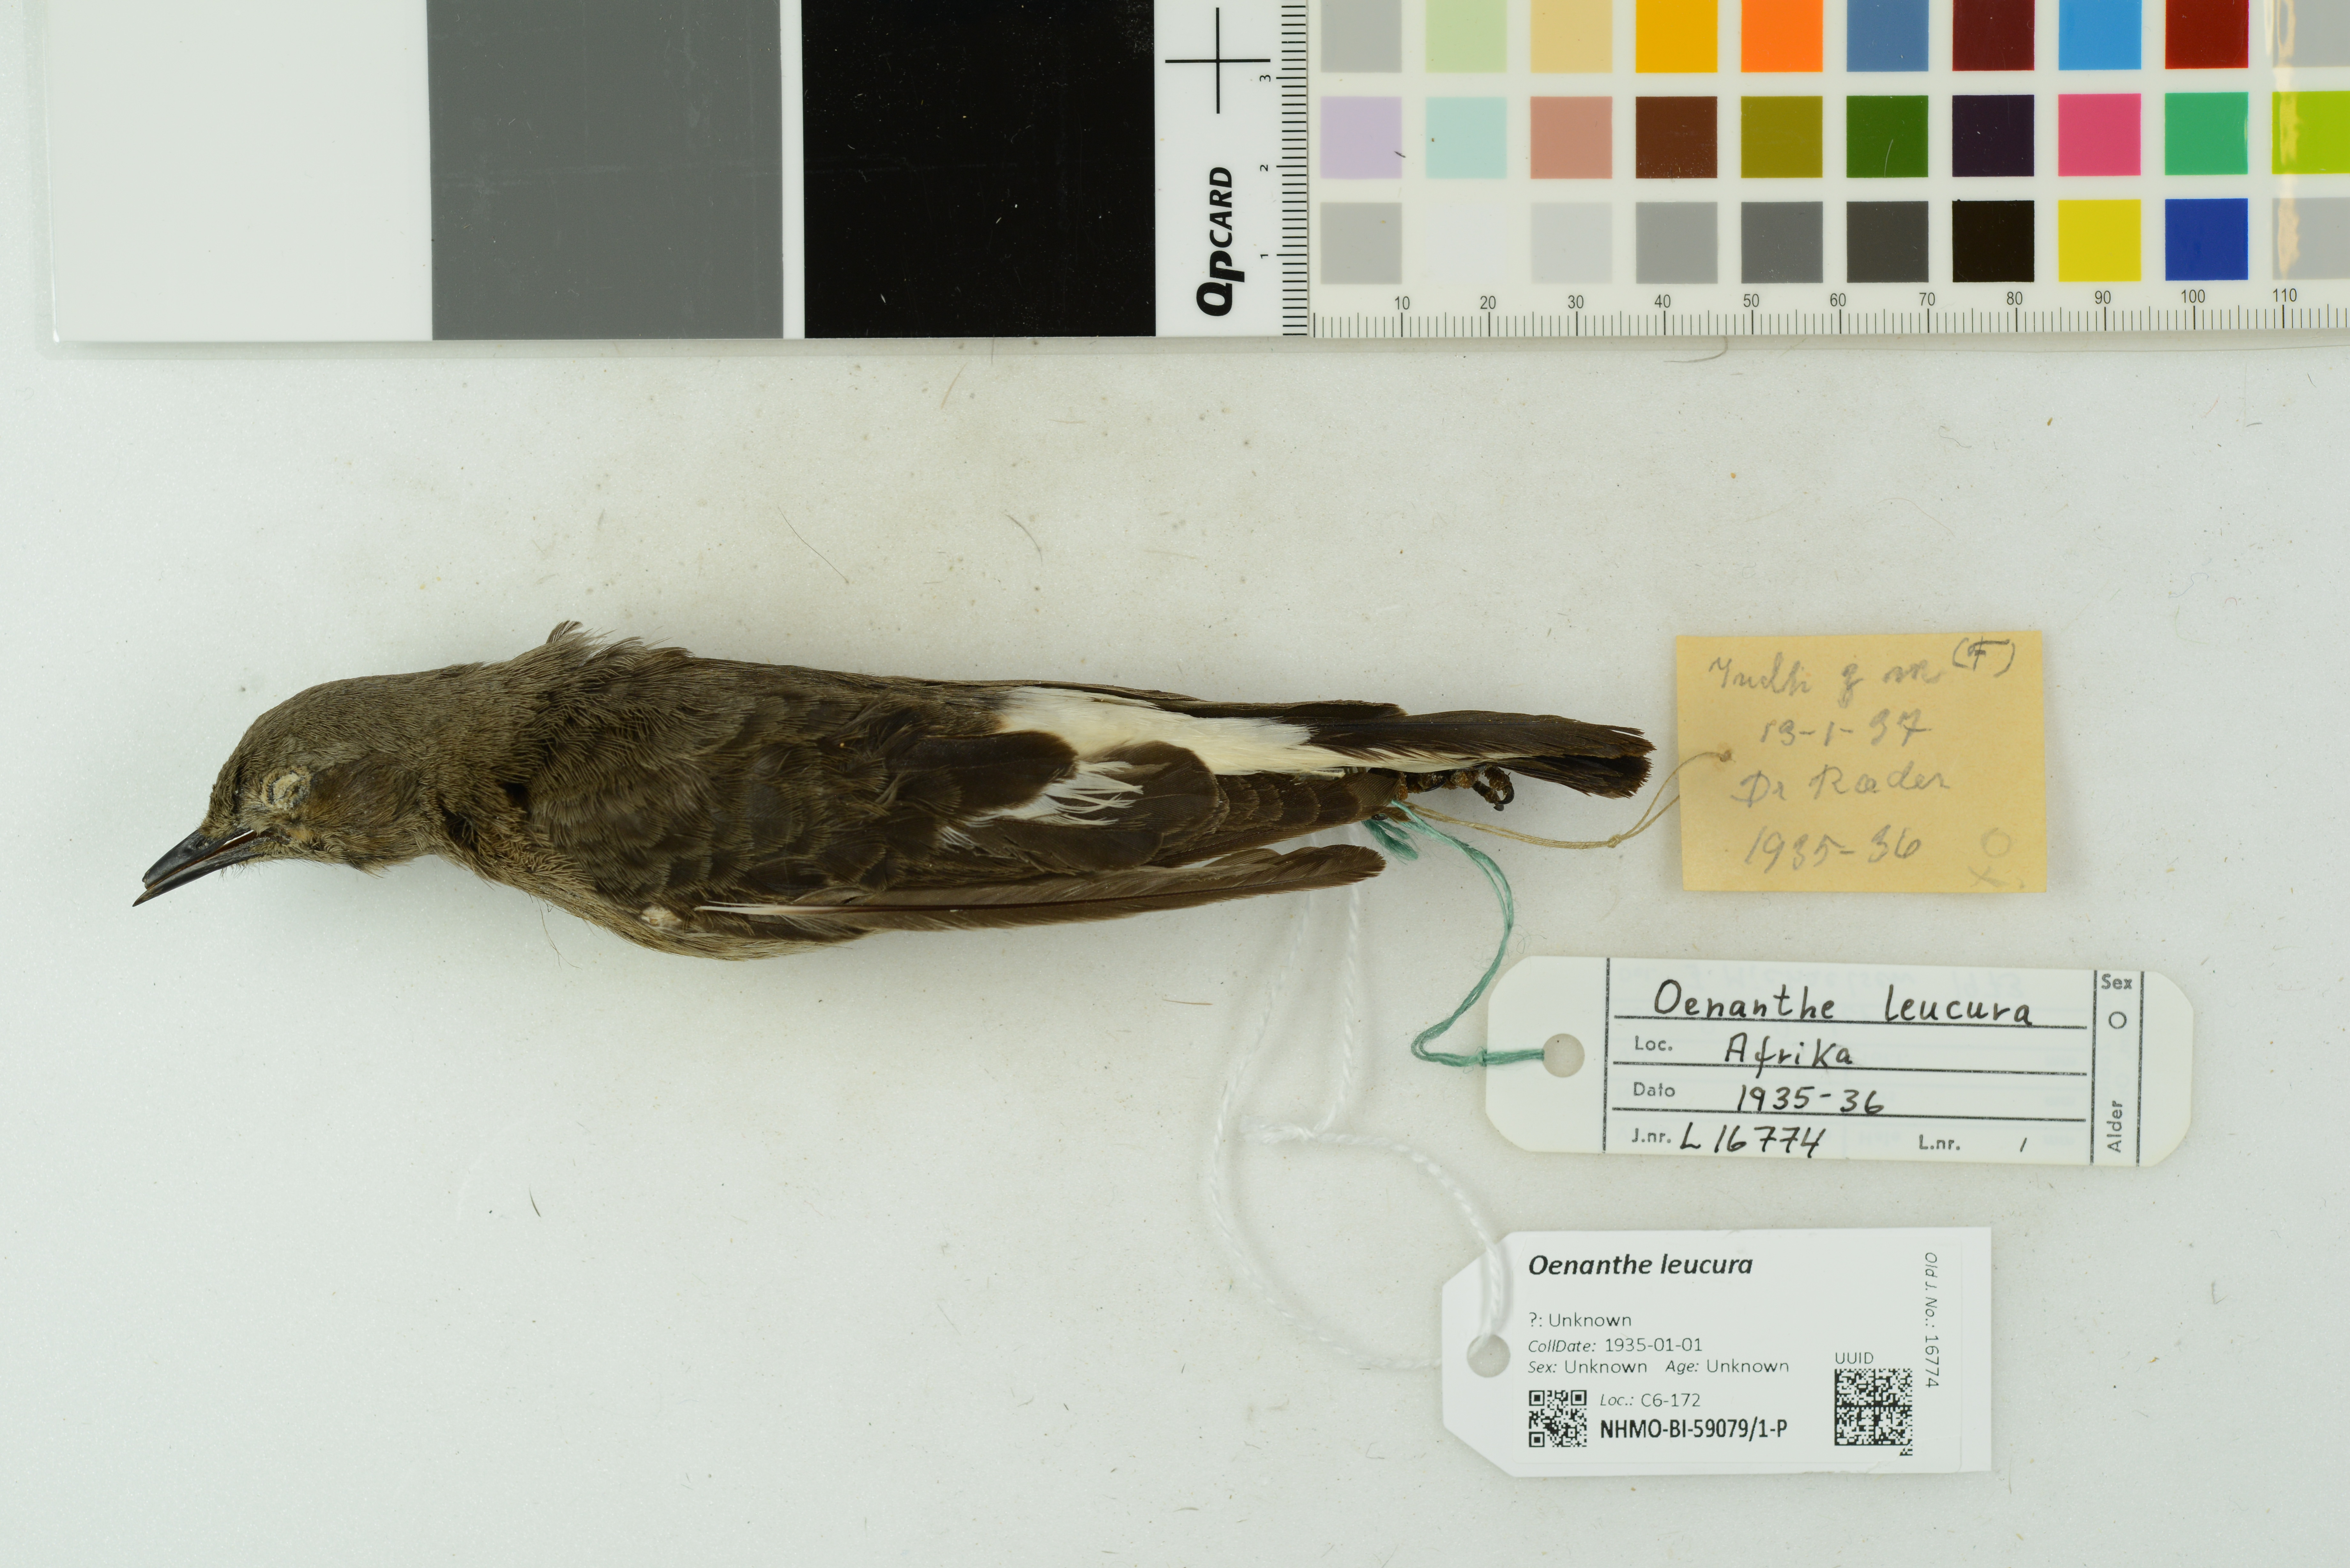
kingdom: Animalia
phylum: Chordata
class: Aves
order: Passeriformes
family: Muscicapidae
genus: Oenanthe
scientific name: Oenanthe leucura
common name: Black wheatear
